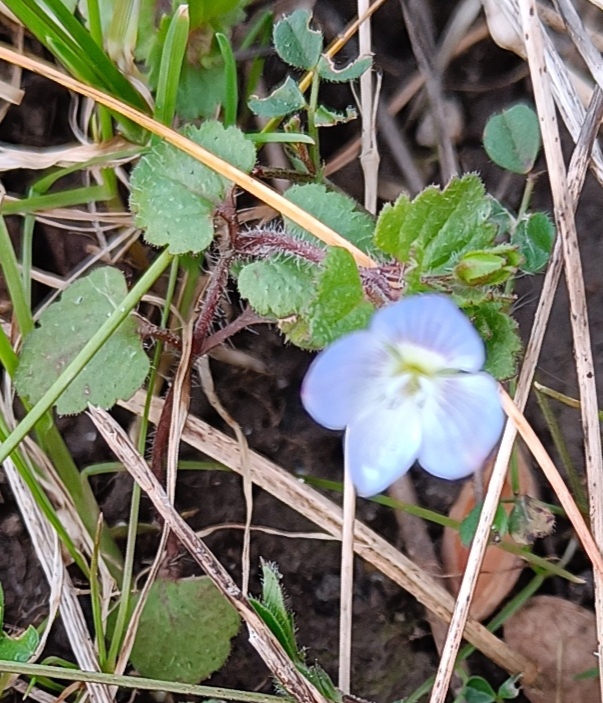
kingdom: Plantae
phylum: Tracheophyta
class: Magnoliopsida
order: Lamiales
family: Plantaginaceae
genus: Veronica
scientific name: Veronica persica
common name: Storkronet ærenpris
